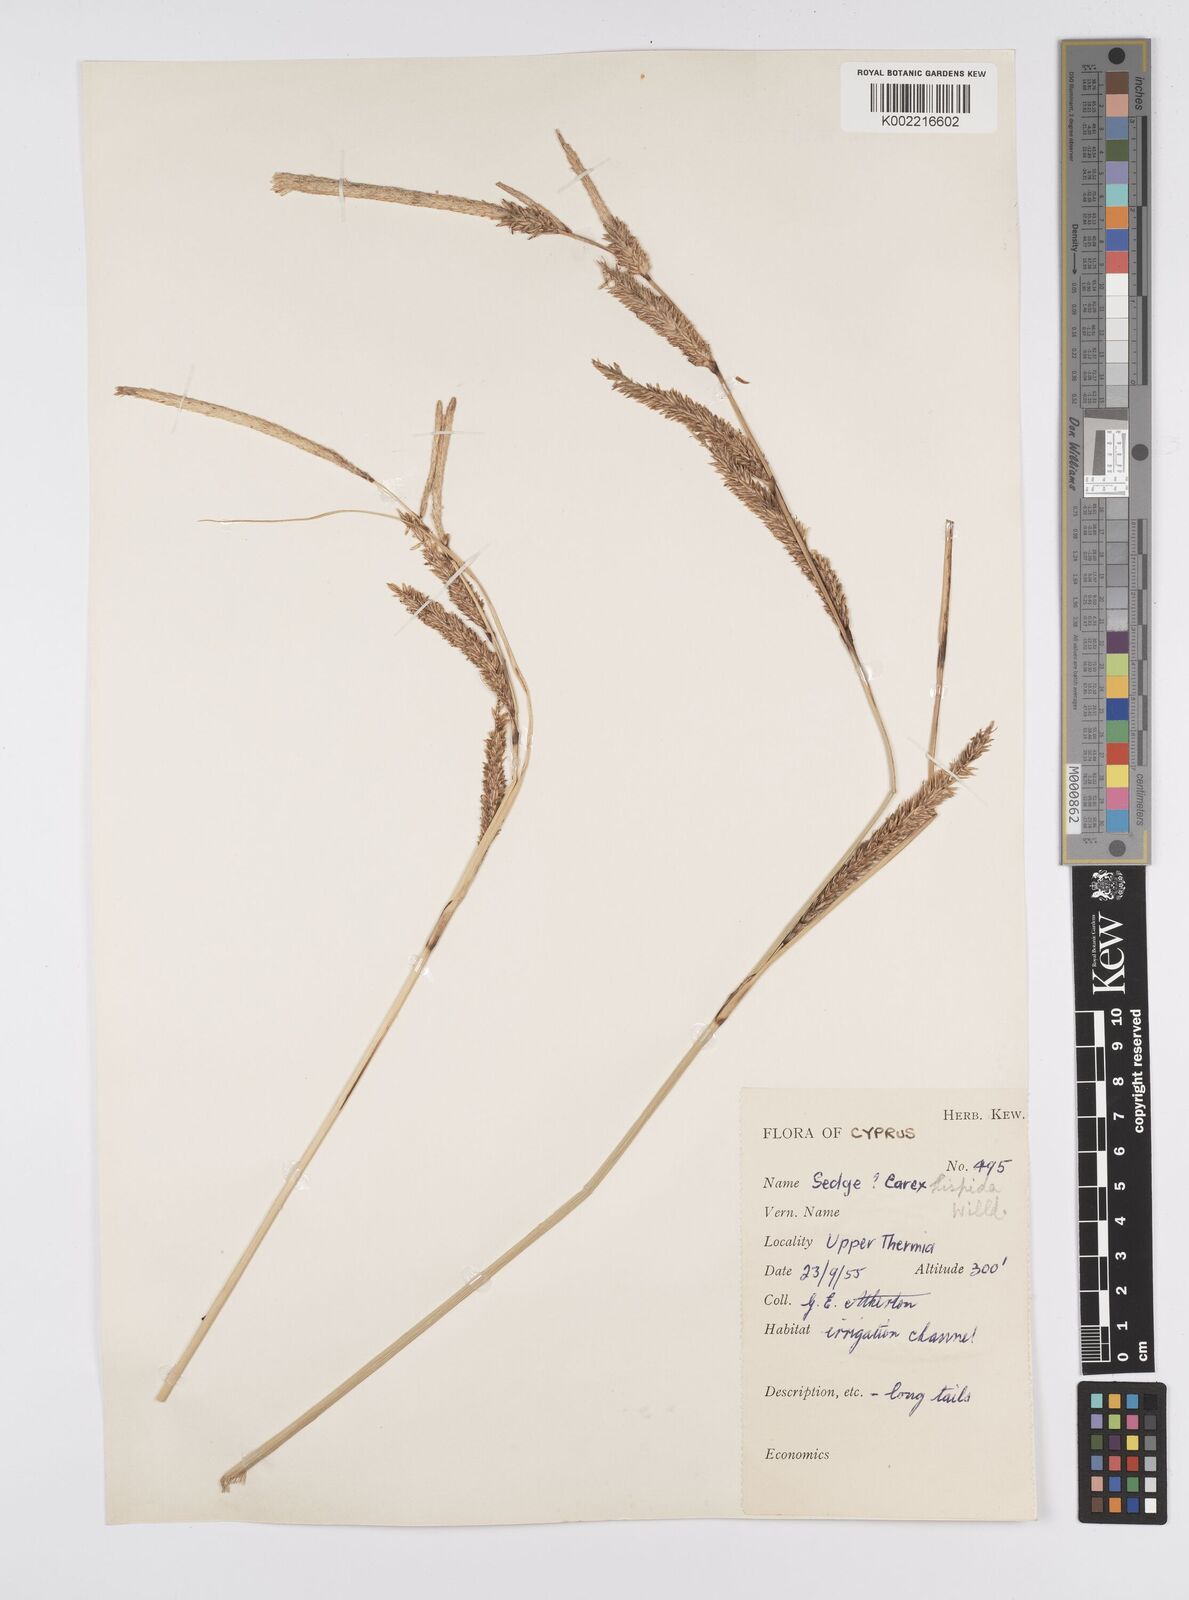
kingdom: Plantae
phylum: Tracheophyta
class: Liliopsida
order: Poales
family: Cyperaceae
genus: Carex
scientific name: Carex hispida
